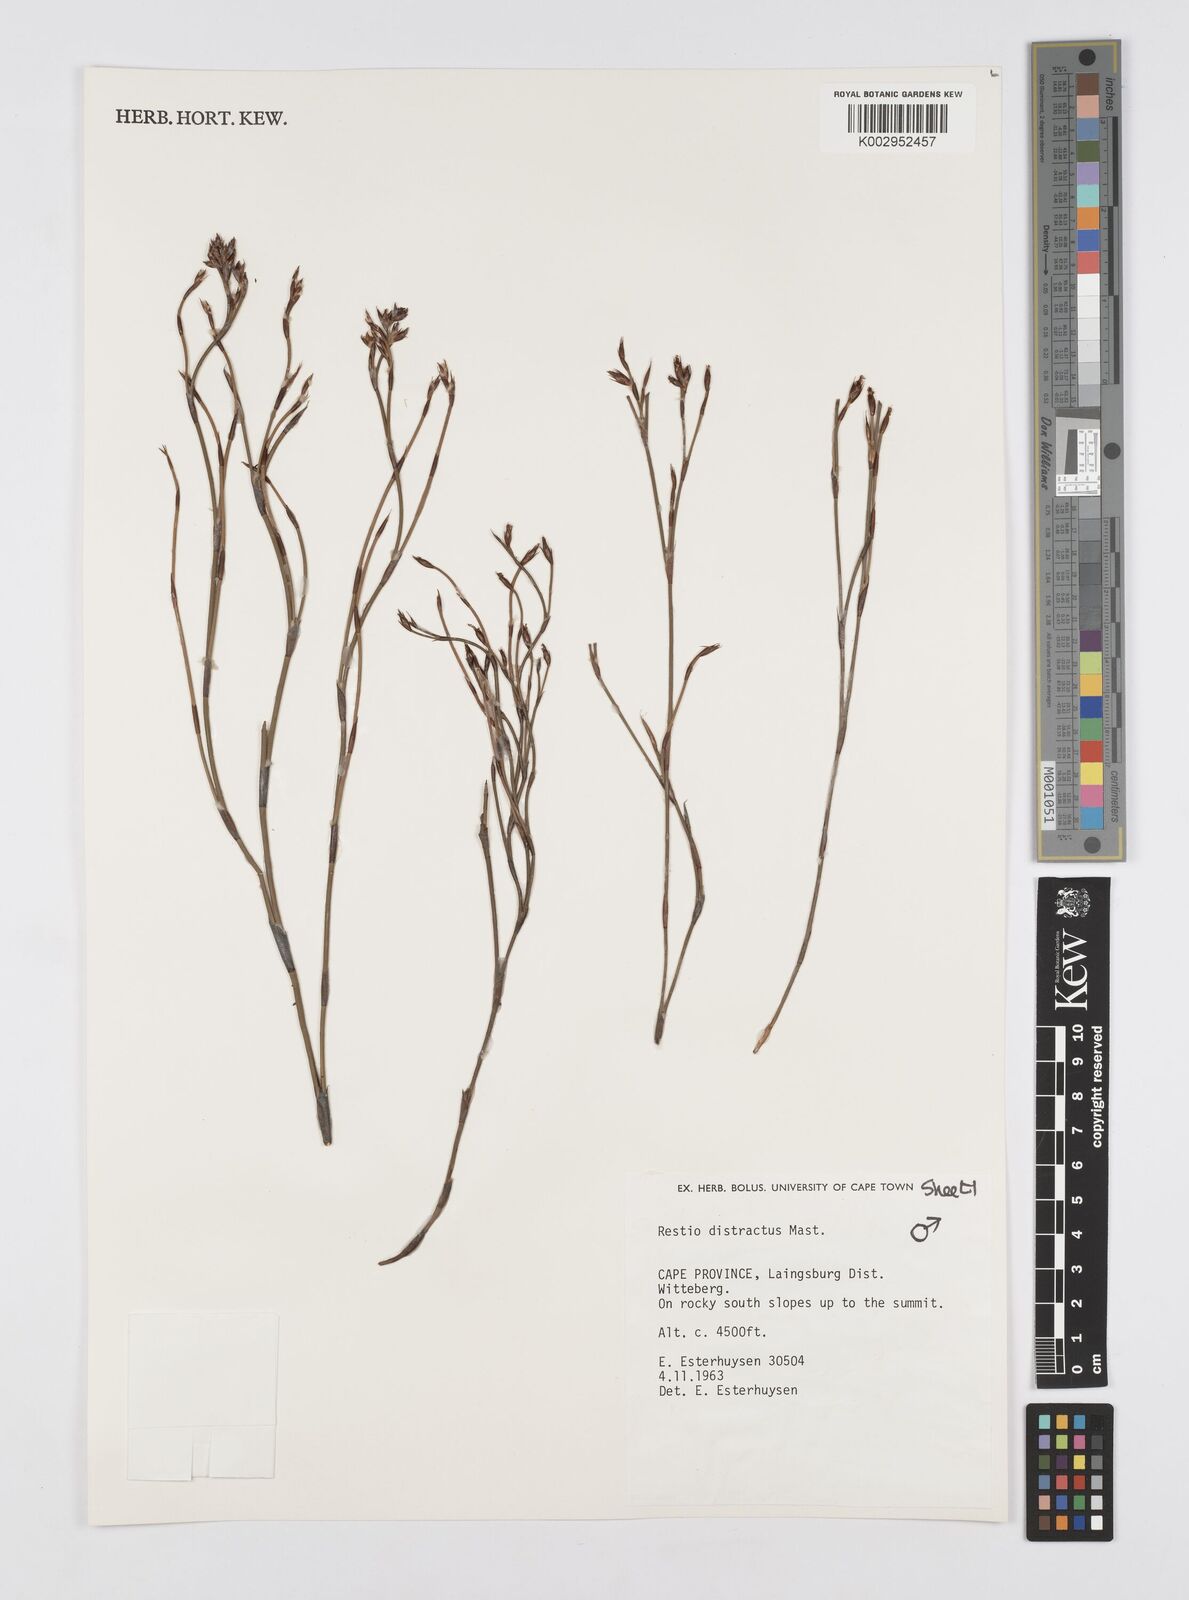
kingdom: Plantae
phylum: Tracheophyta
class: Liliopsida
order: Poales
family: Restionaceae
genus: Restio
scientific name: Restio distractus
